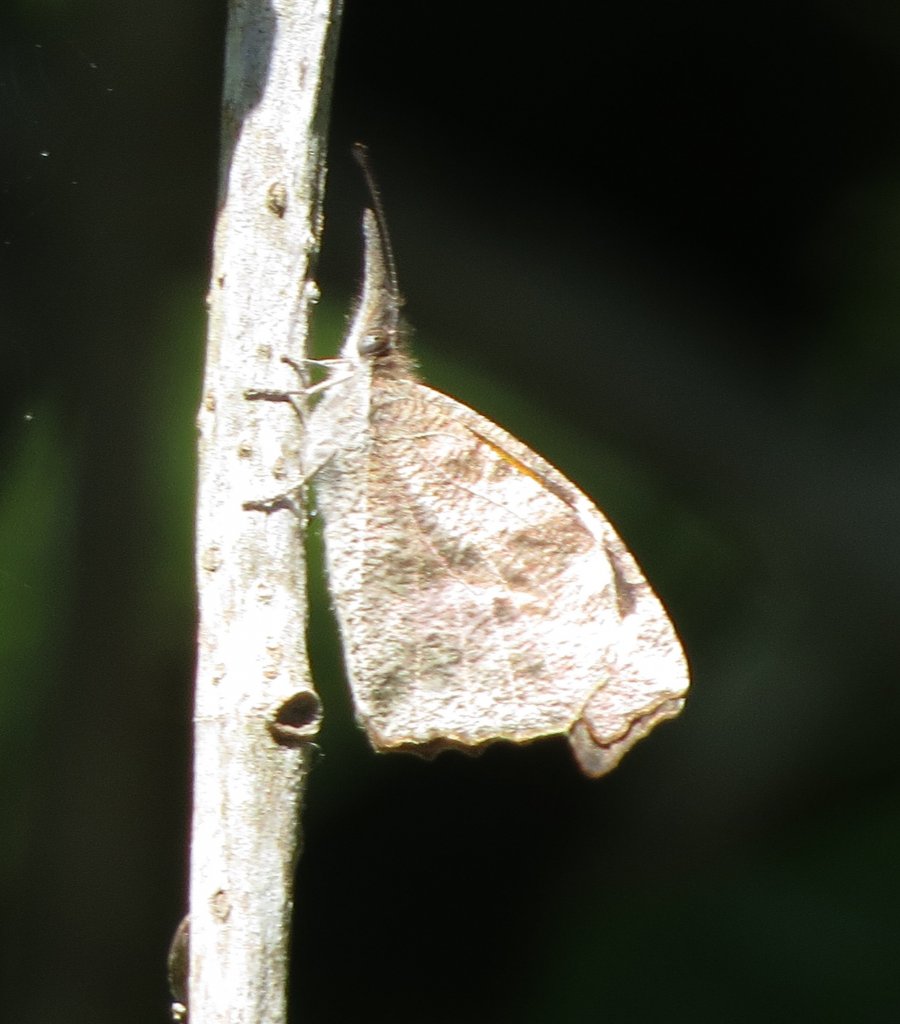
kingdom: Animalia
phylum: Arthropoda
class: Insecta
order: Lepidoptera
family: Nymphalidae
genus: Libytheana
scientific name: Libytheana carinenta
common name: American Snout
